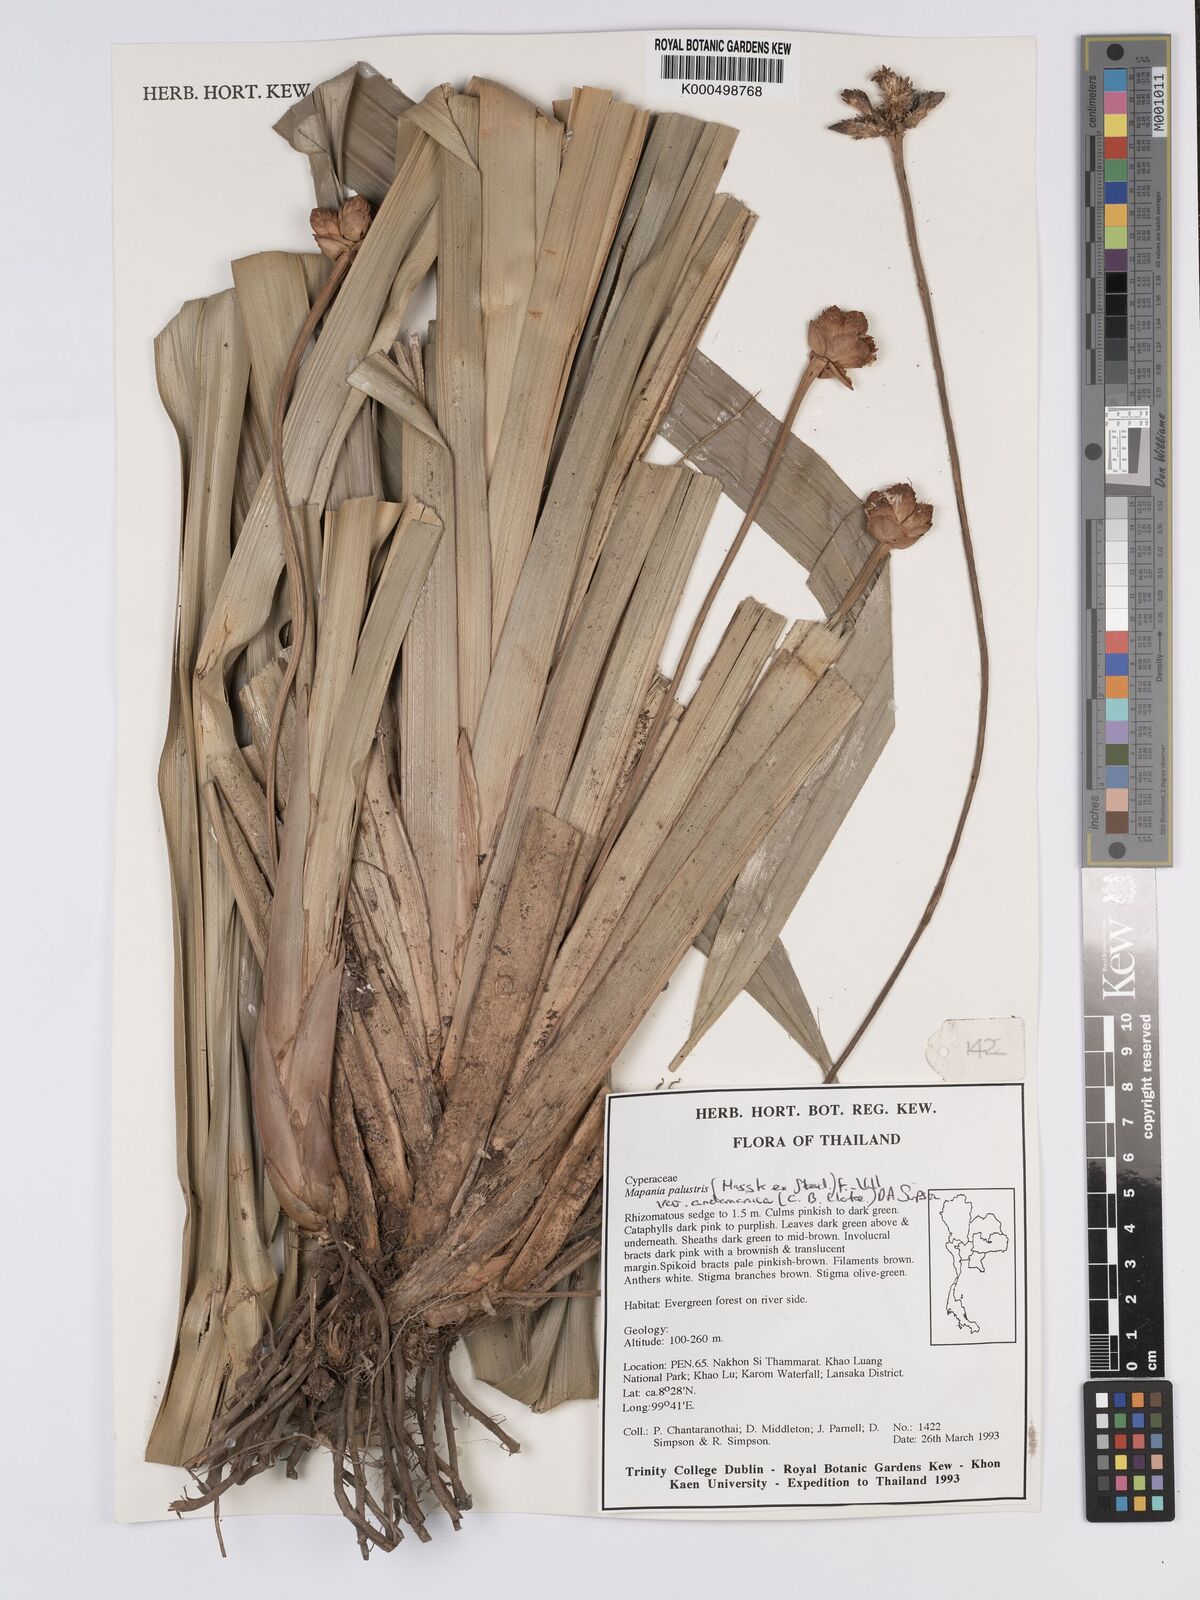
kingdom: Plantae
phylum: Tracheophyta
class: Liliopsida
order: Poales
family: Cyperaceae
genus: Mapania
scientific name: Mapania palustris
